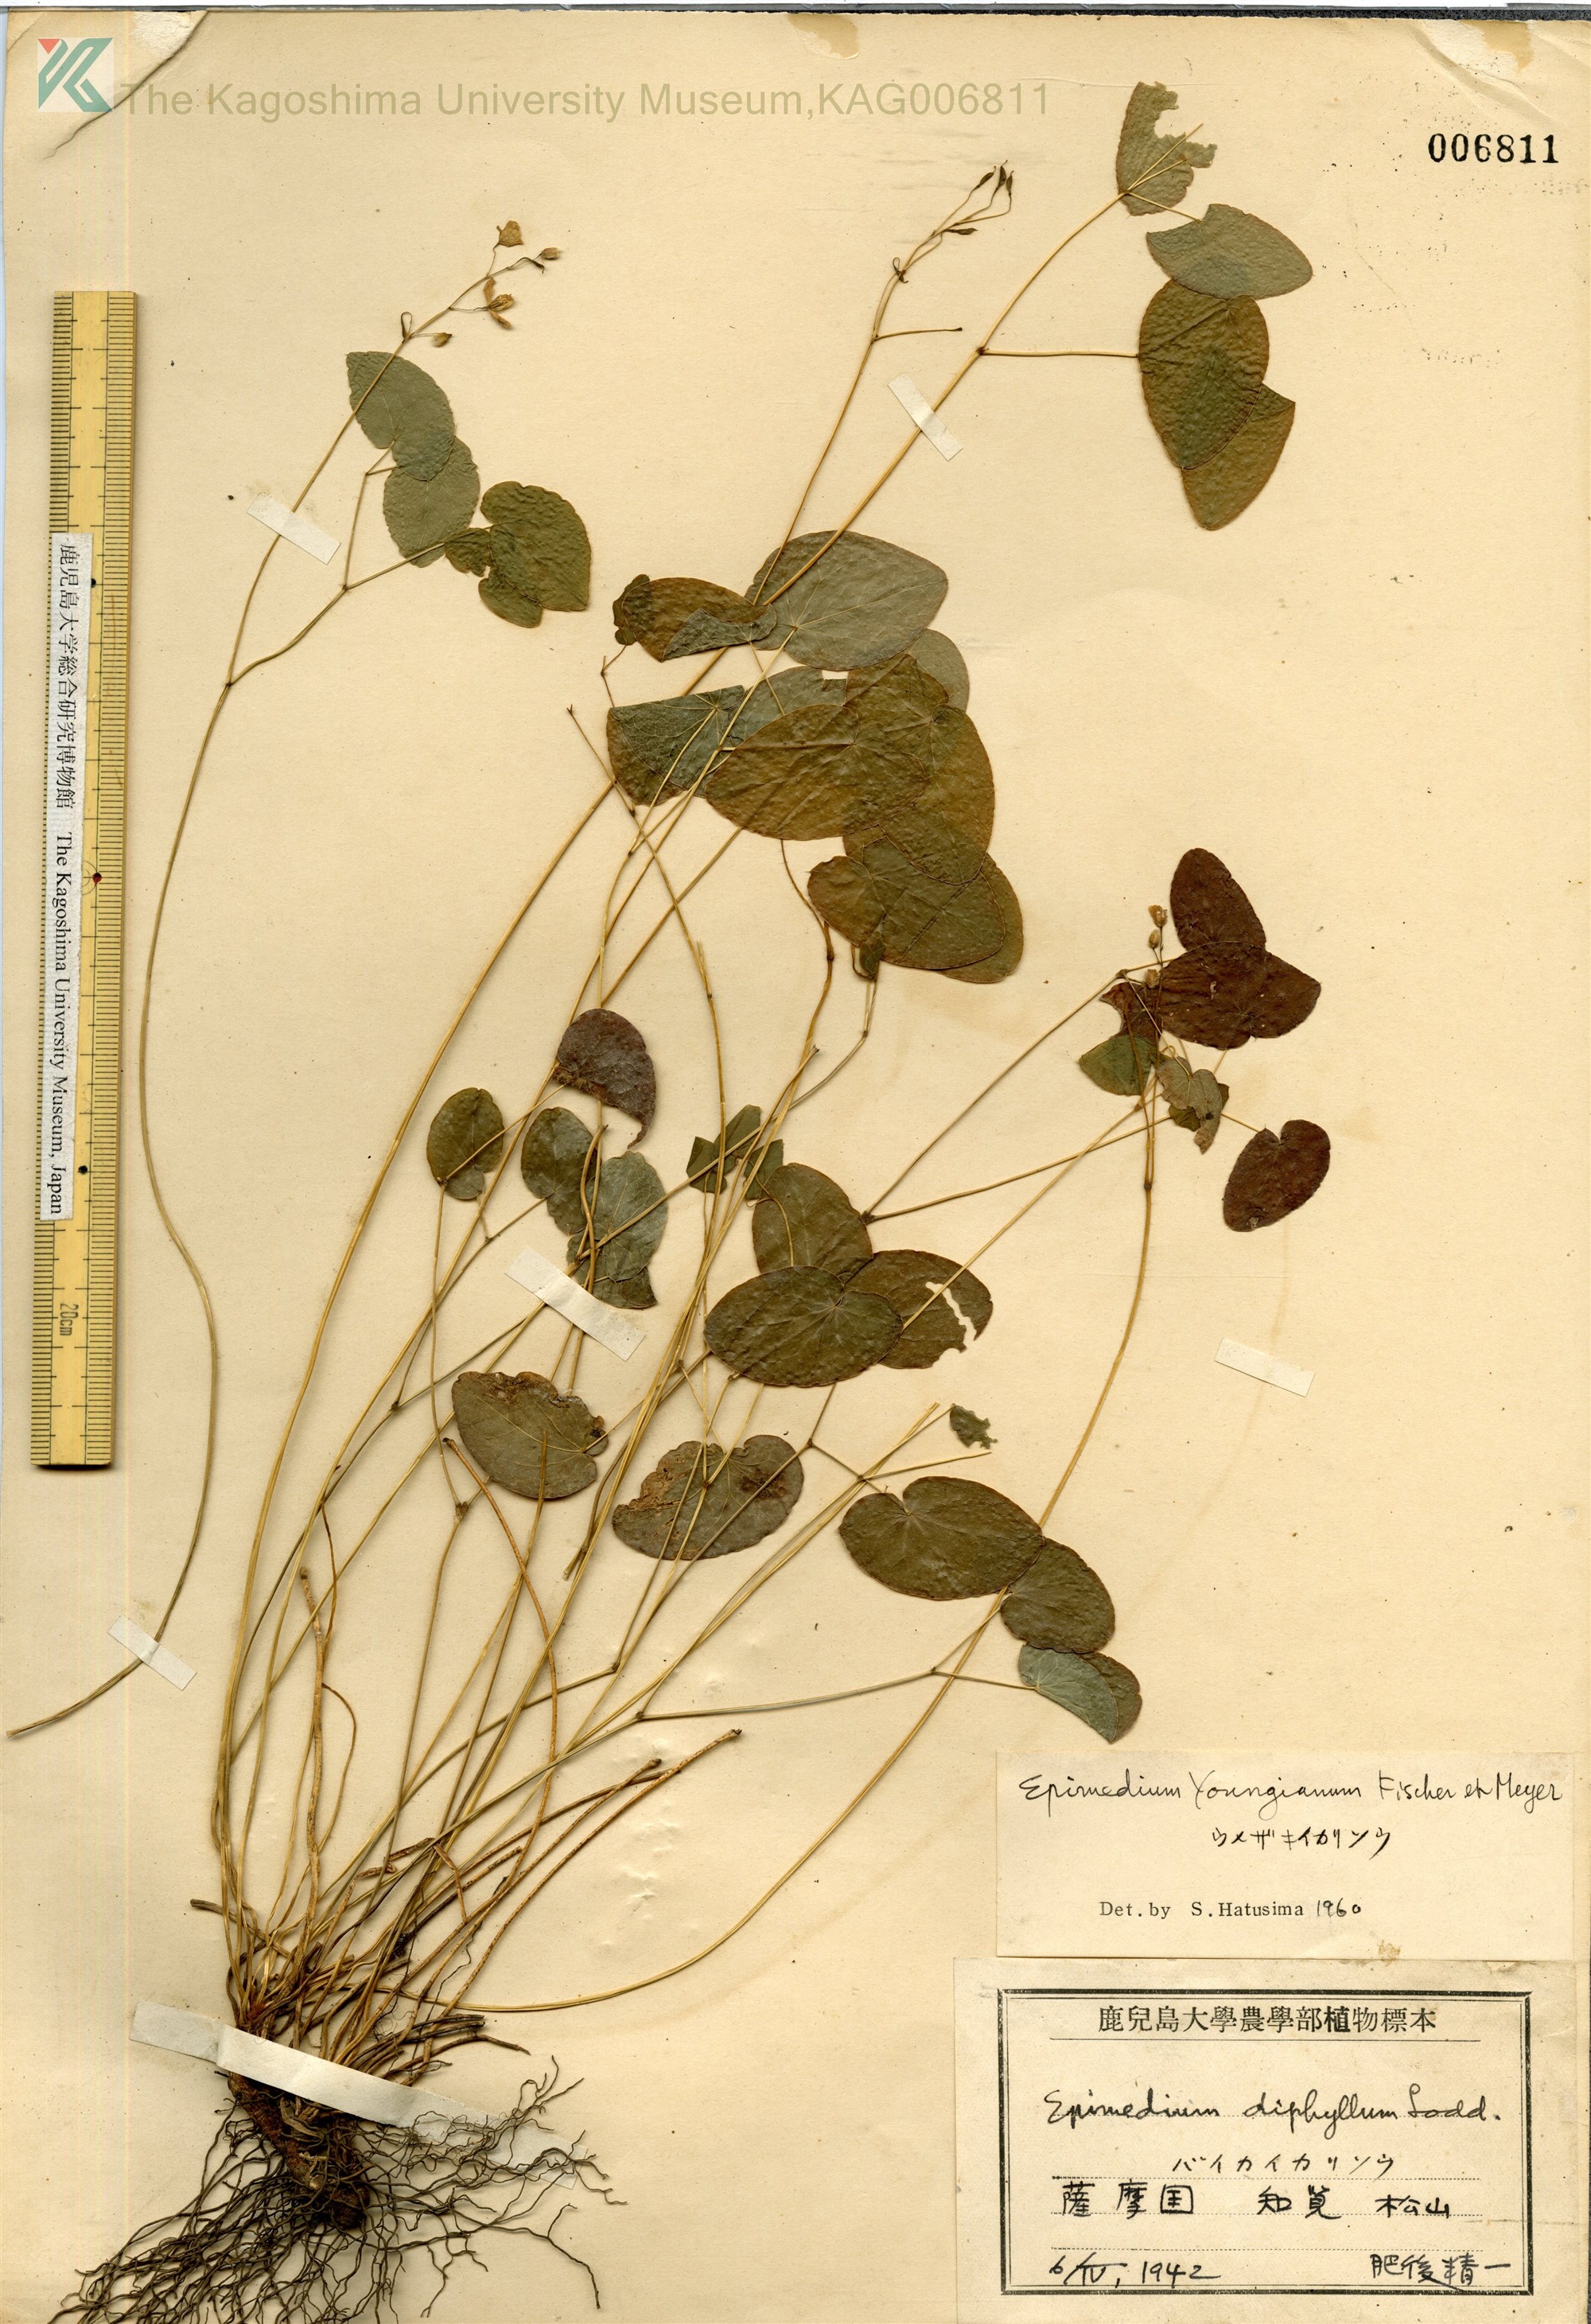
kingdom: Plantae
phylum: Tracheophyta
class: Magnoliopsida
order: Ranunculales
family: Berberidaceae
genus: Epimedium
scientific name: Epimedium diphyllum
